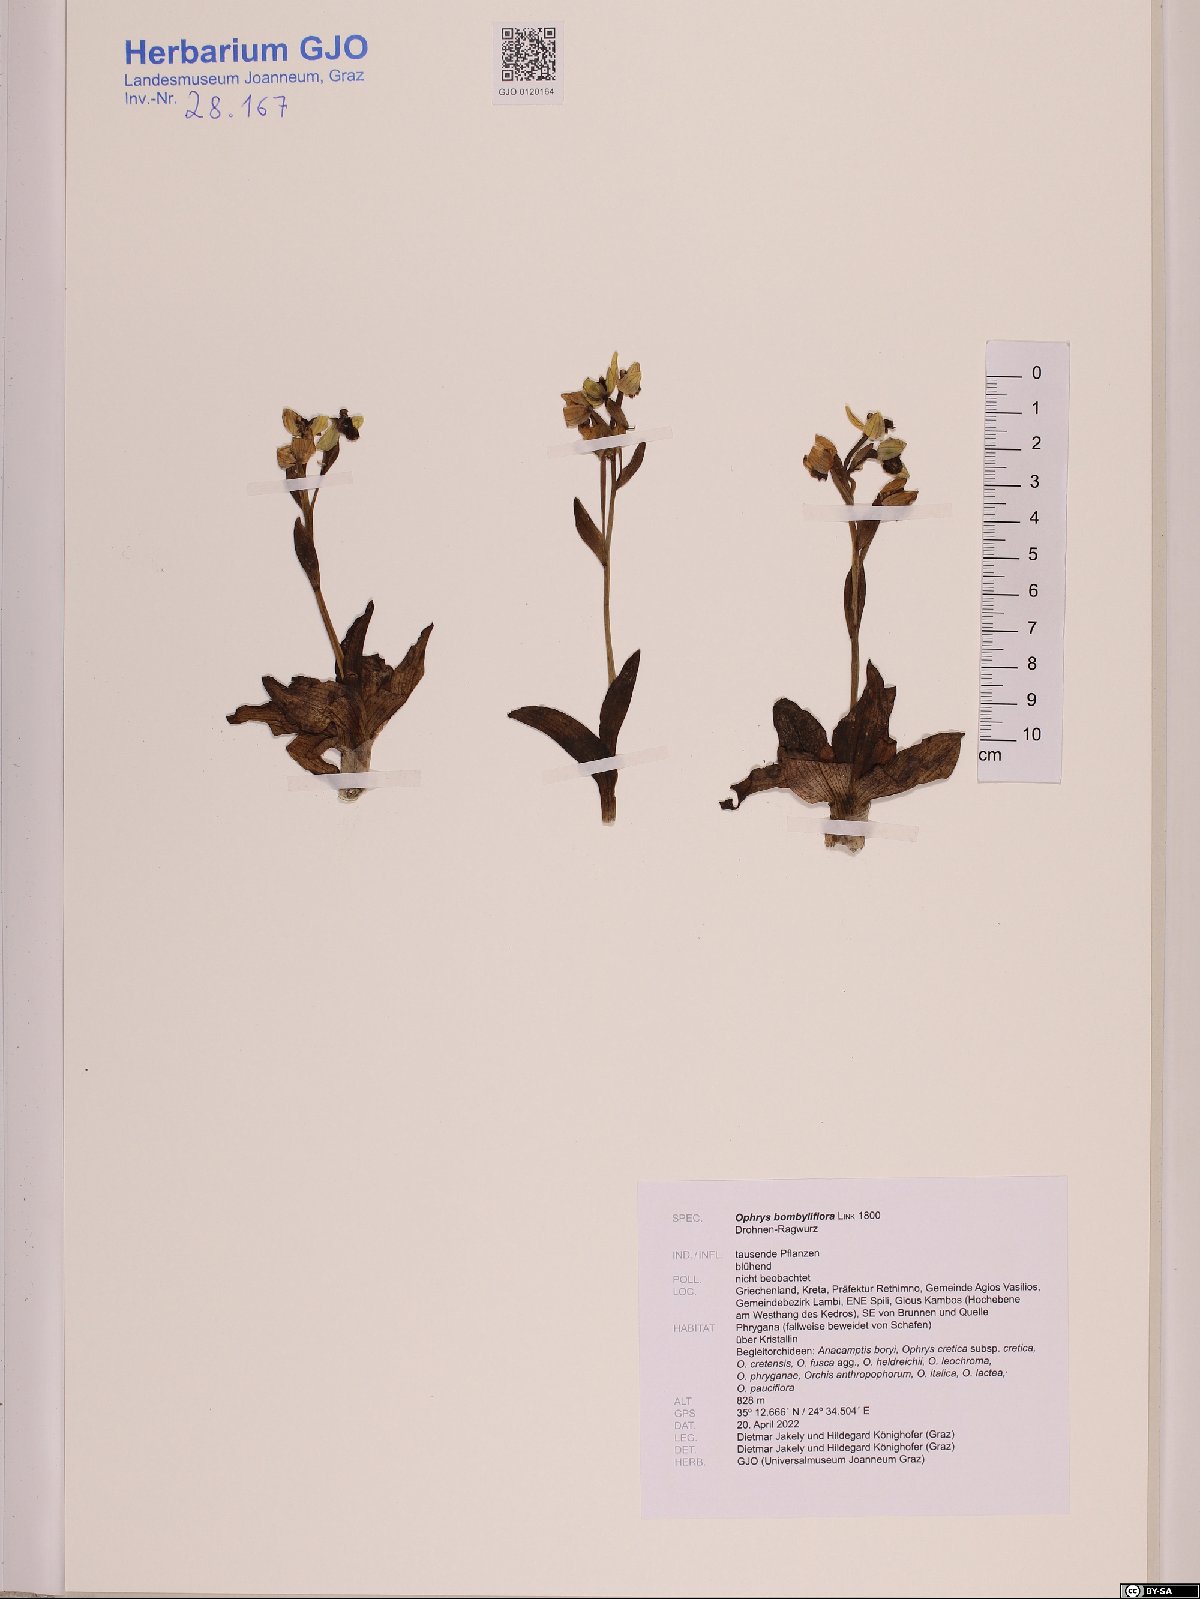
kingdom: Plantae
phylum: Tracheophyta
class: Liliopsida
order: Asparagales
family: Orchidaceae
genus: Ophrys
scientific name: Ophrys bombyliflora
